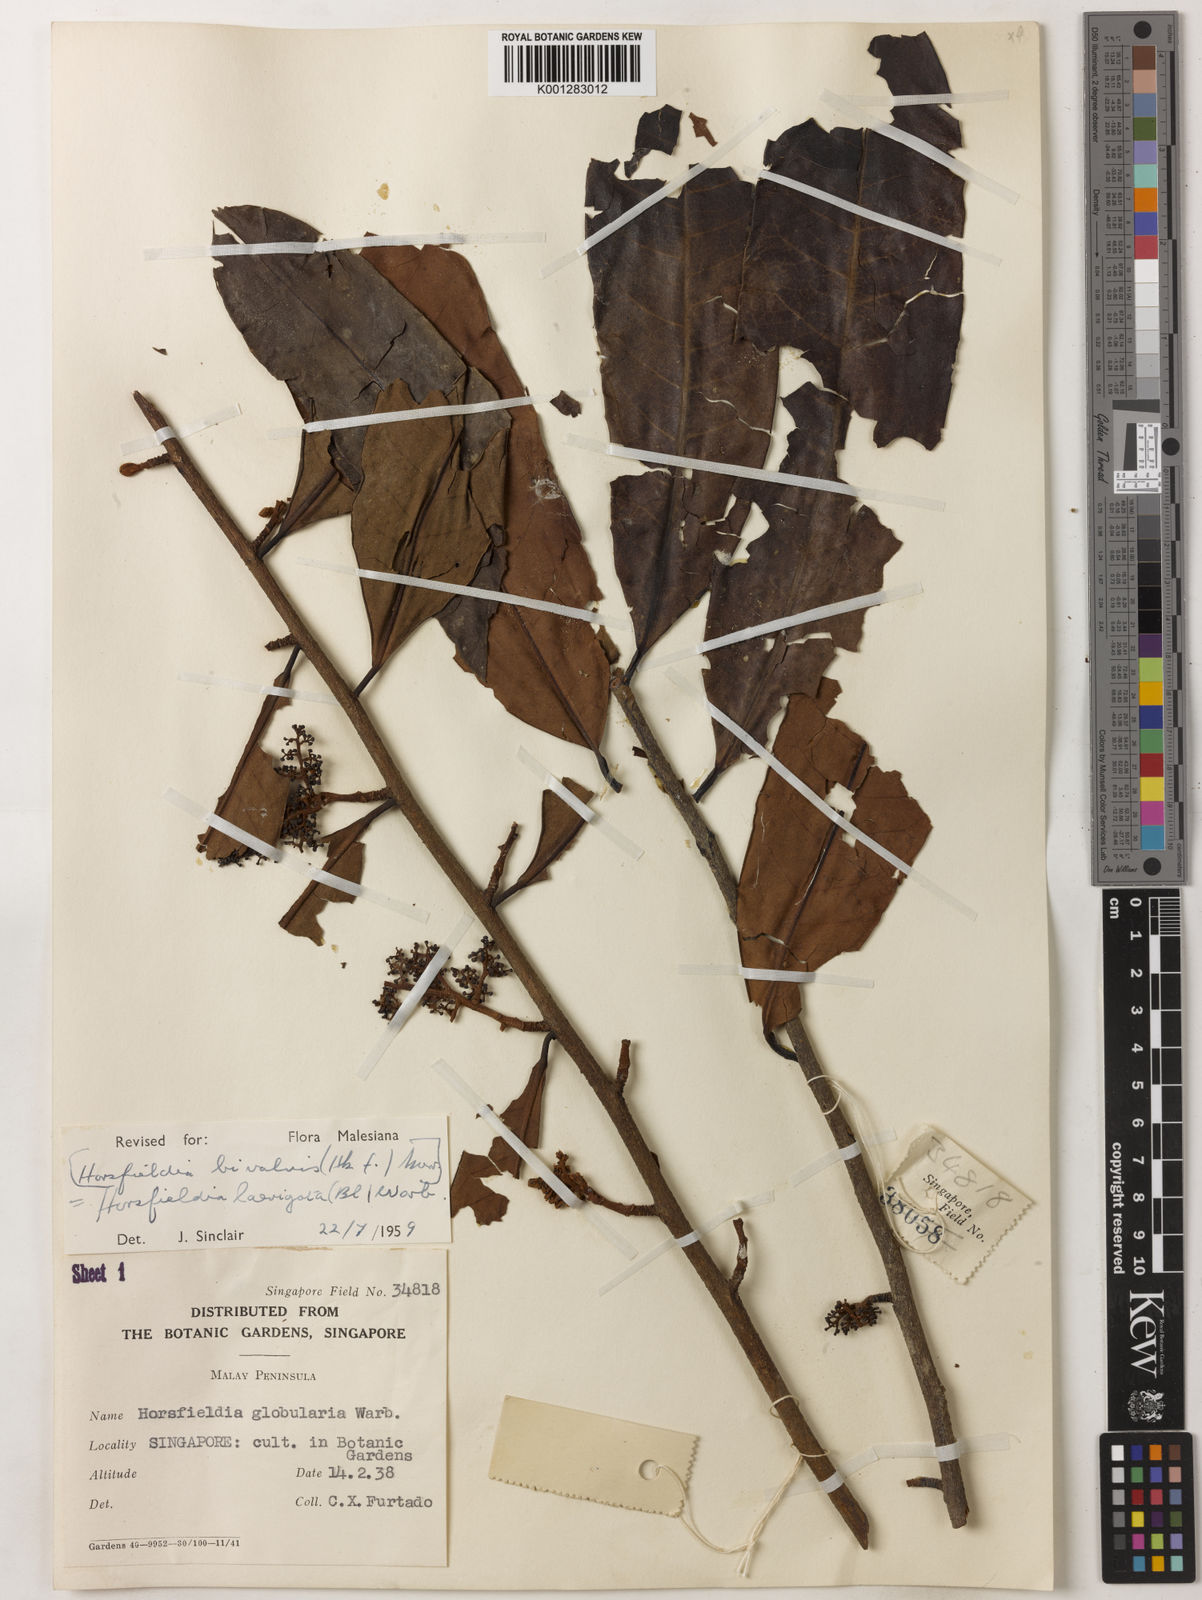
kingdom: Plantae
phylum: Tracheophyta
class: Magnoliopsida
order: Magnoliales
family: Myristicaceae
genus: Horsfieldia
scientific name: Horsfieldia laevigata
